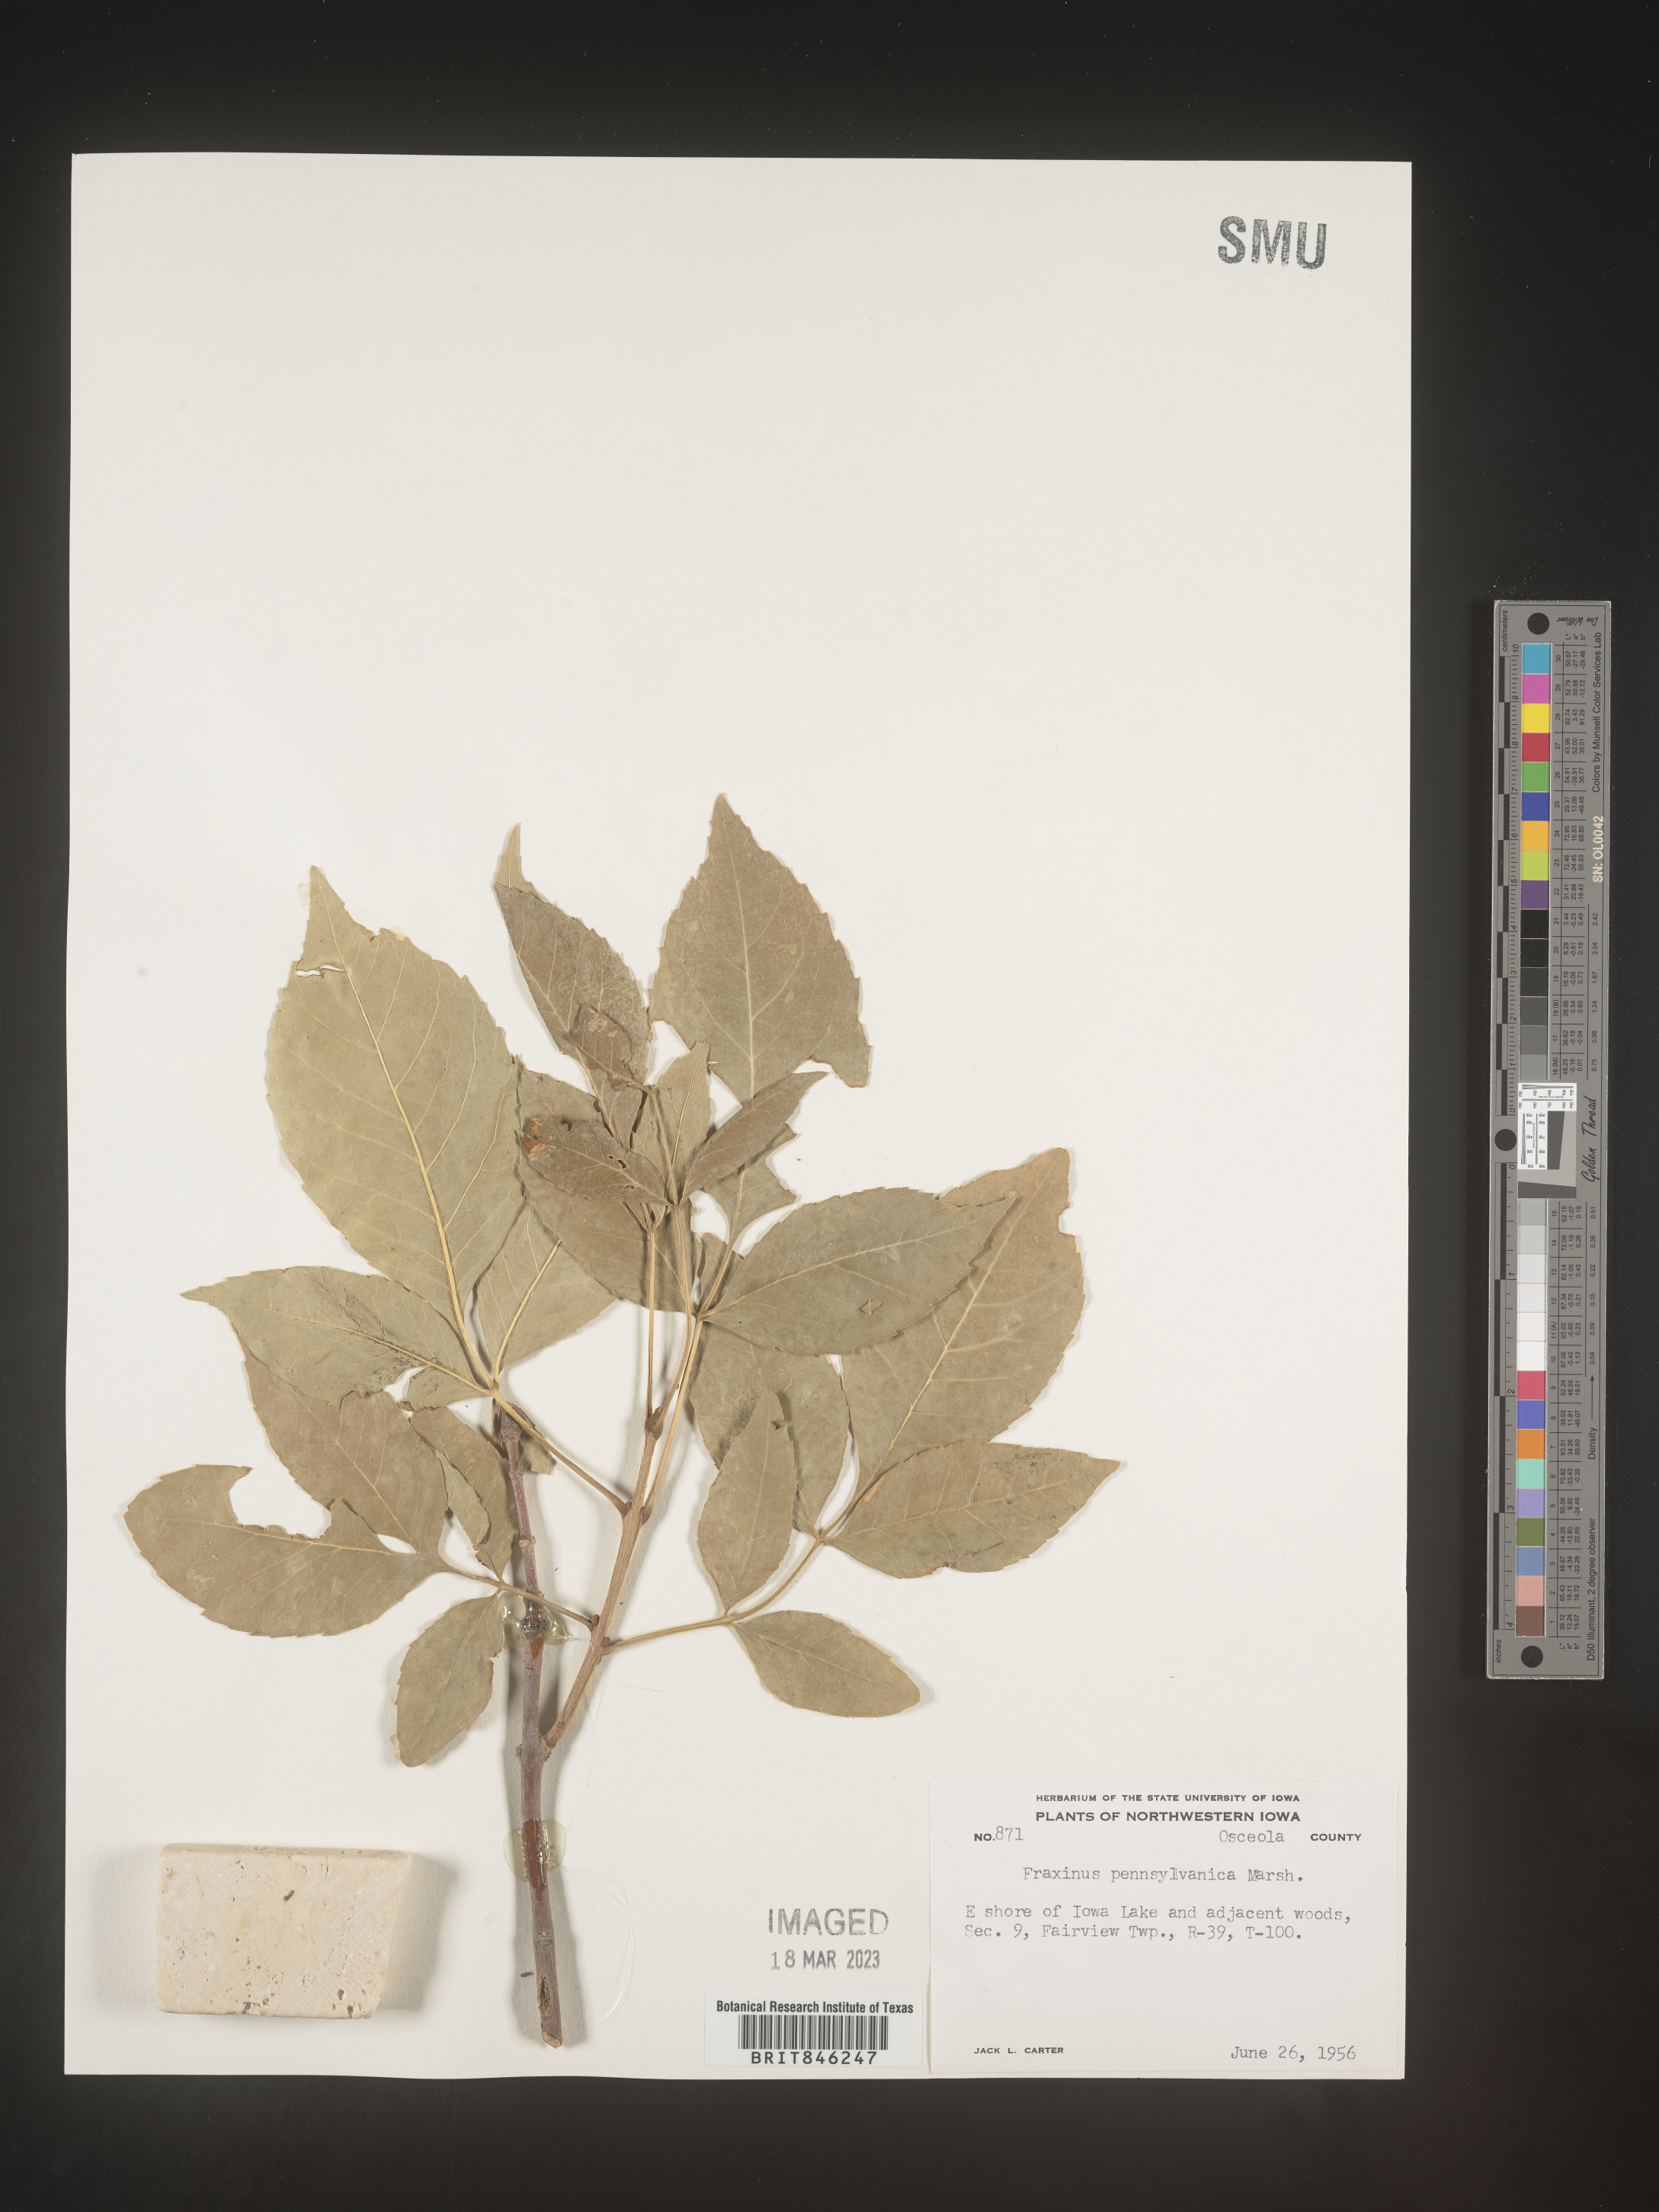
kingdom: Plantae
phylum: Tracheophyta
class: Magnoliopsida
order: Lamiales
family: Oleaceae
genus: Fraxinus
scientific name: Fraxinus pennsylvanica
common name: Green ash
